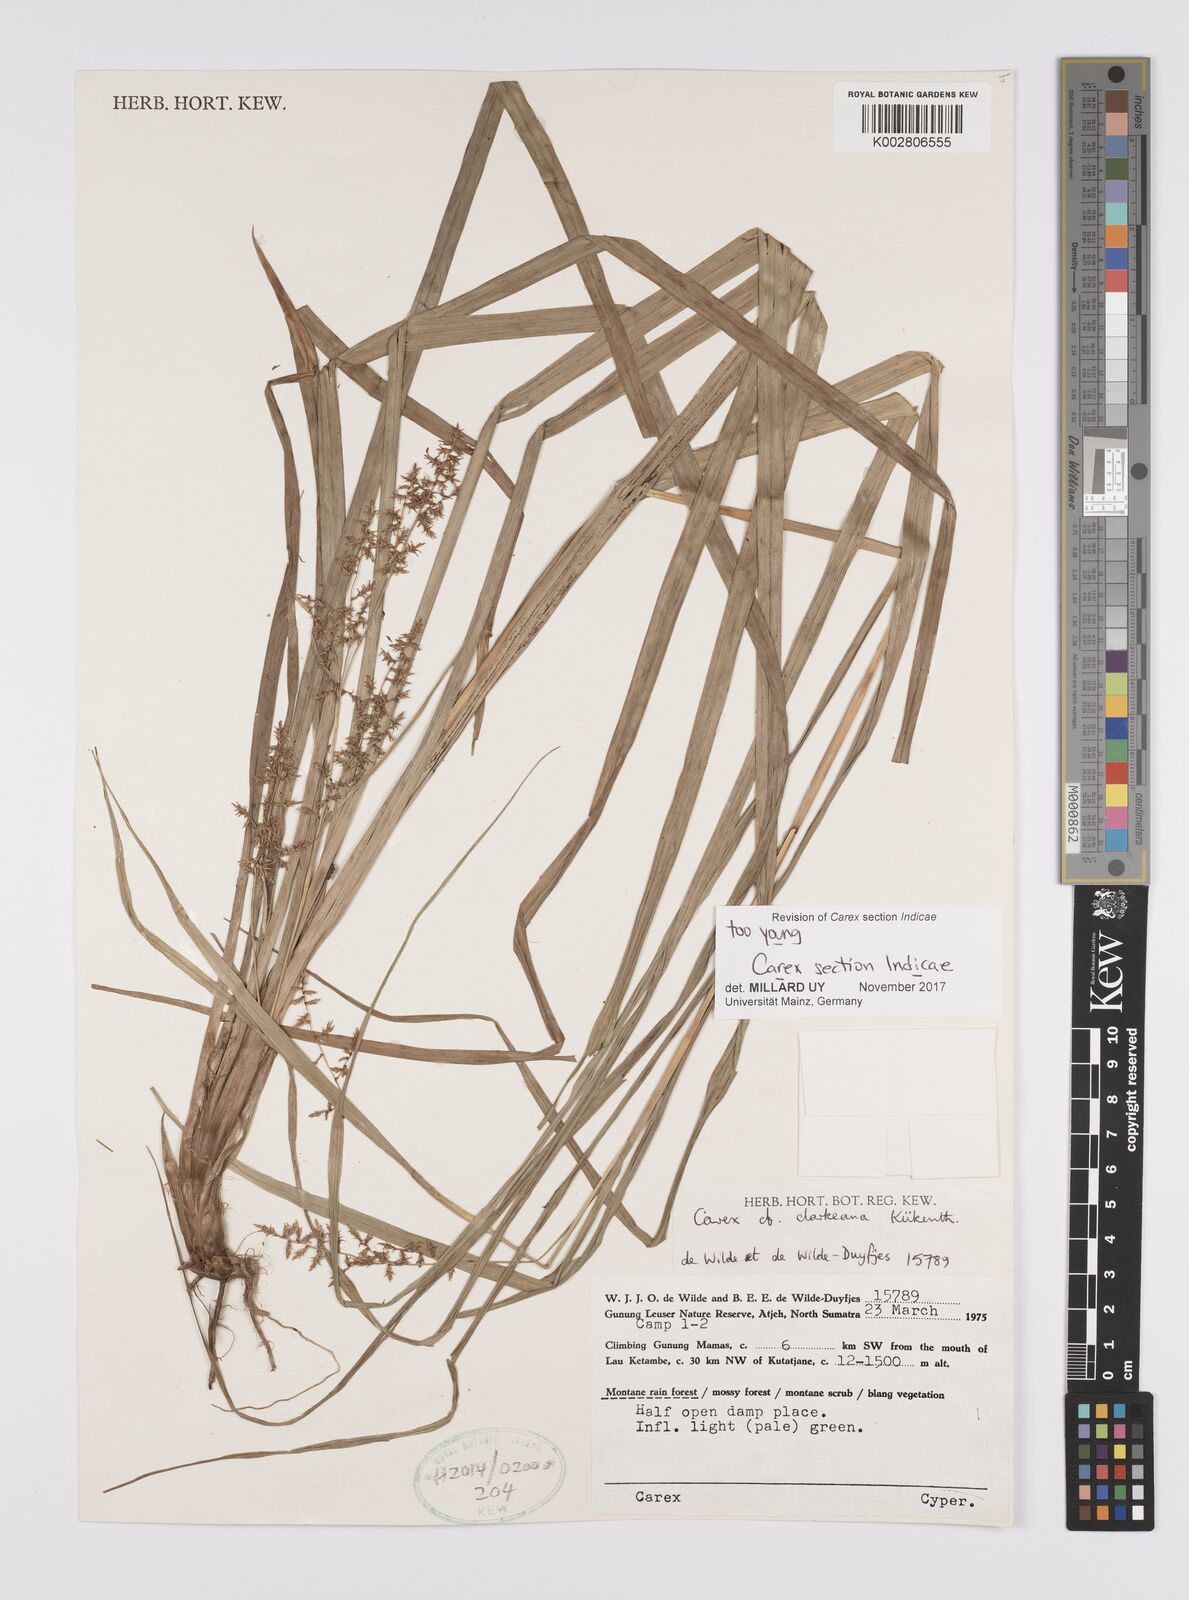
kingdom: Plantae
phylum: Tracheophyta
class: Liliopsida
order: Poales
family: Cyperaceae
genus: Carex
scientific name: Carex
